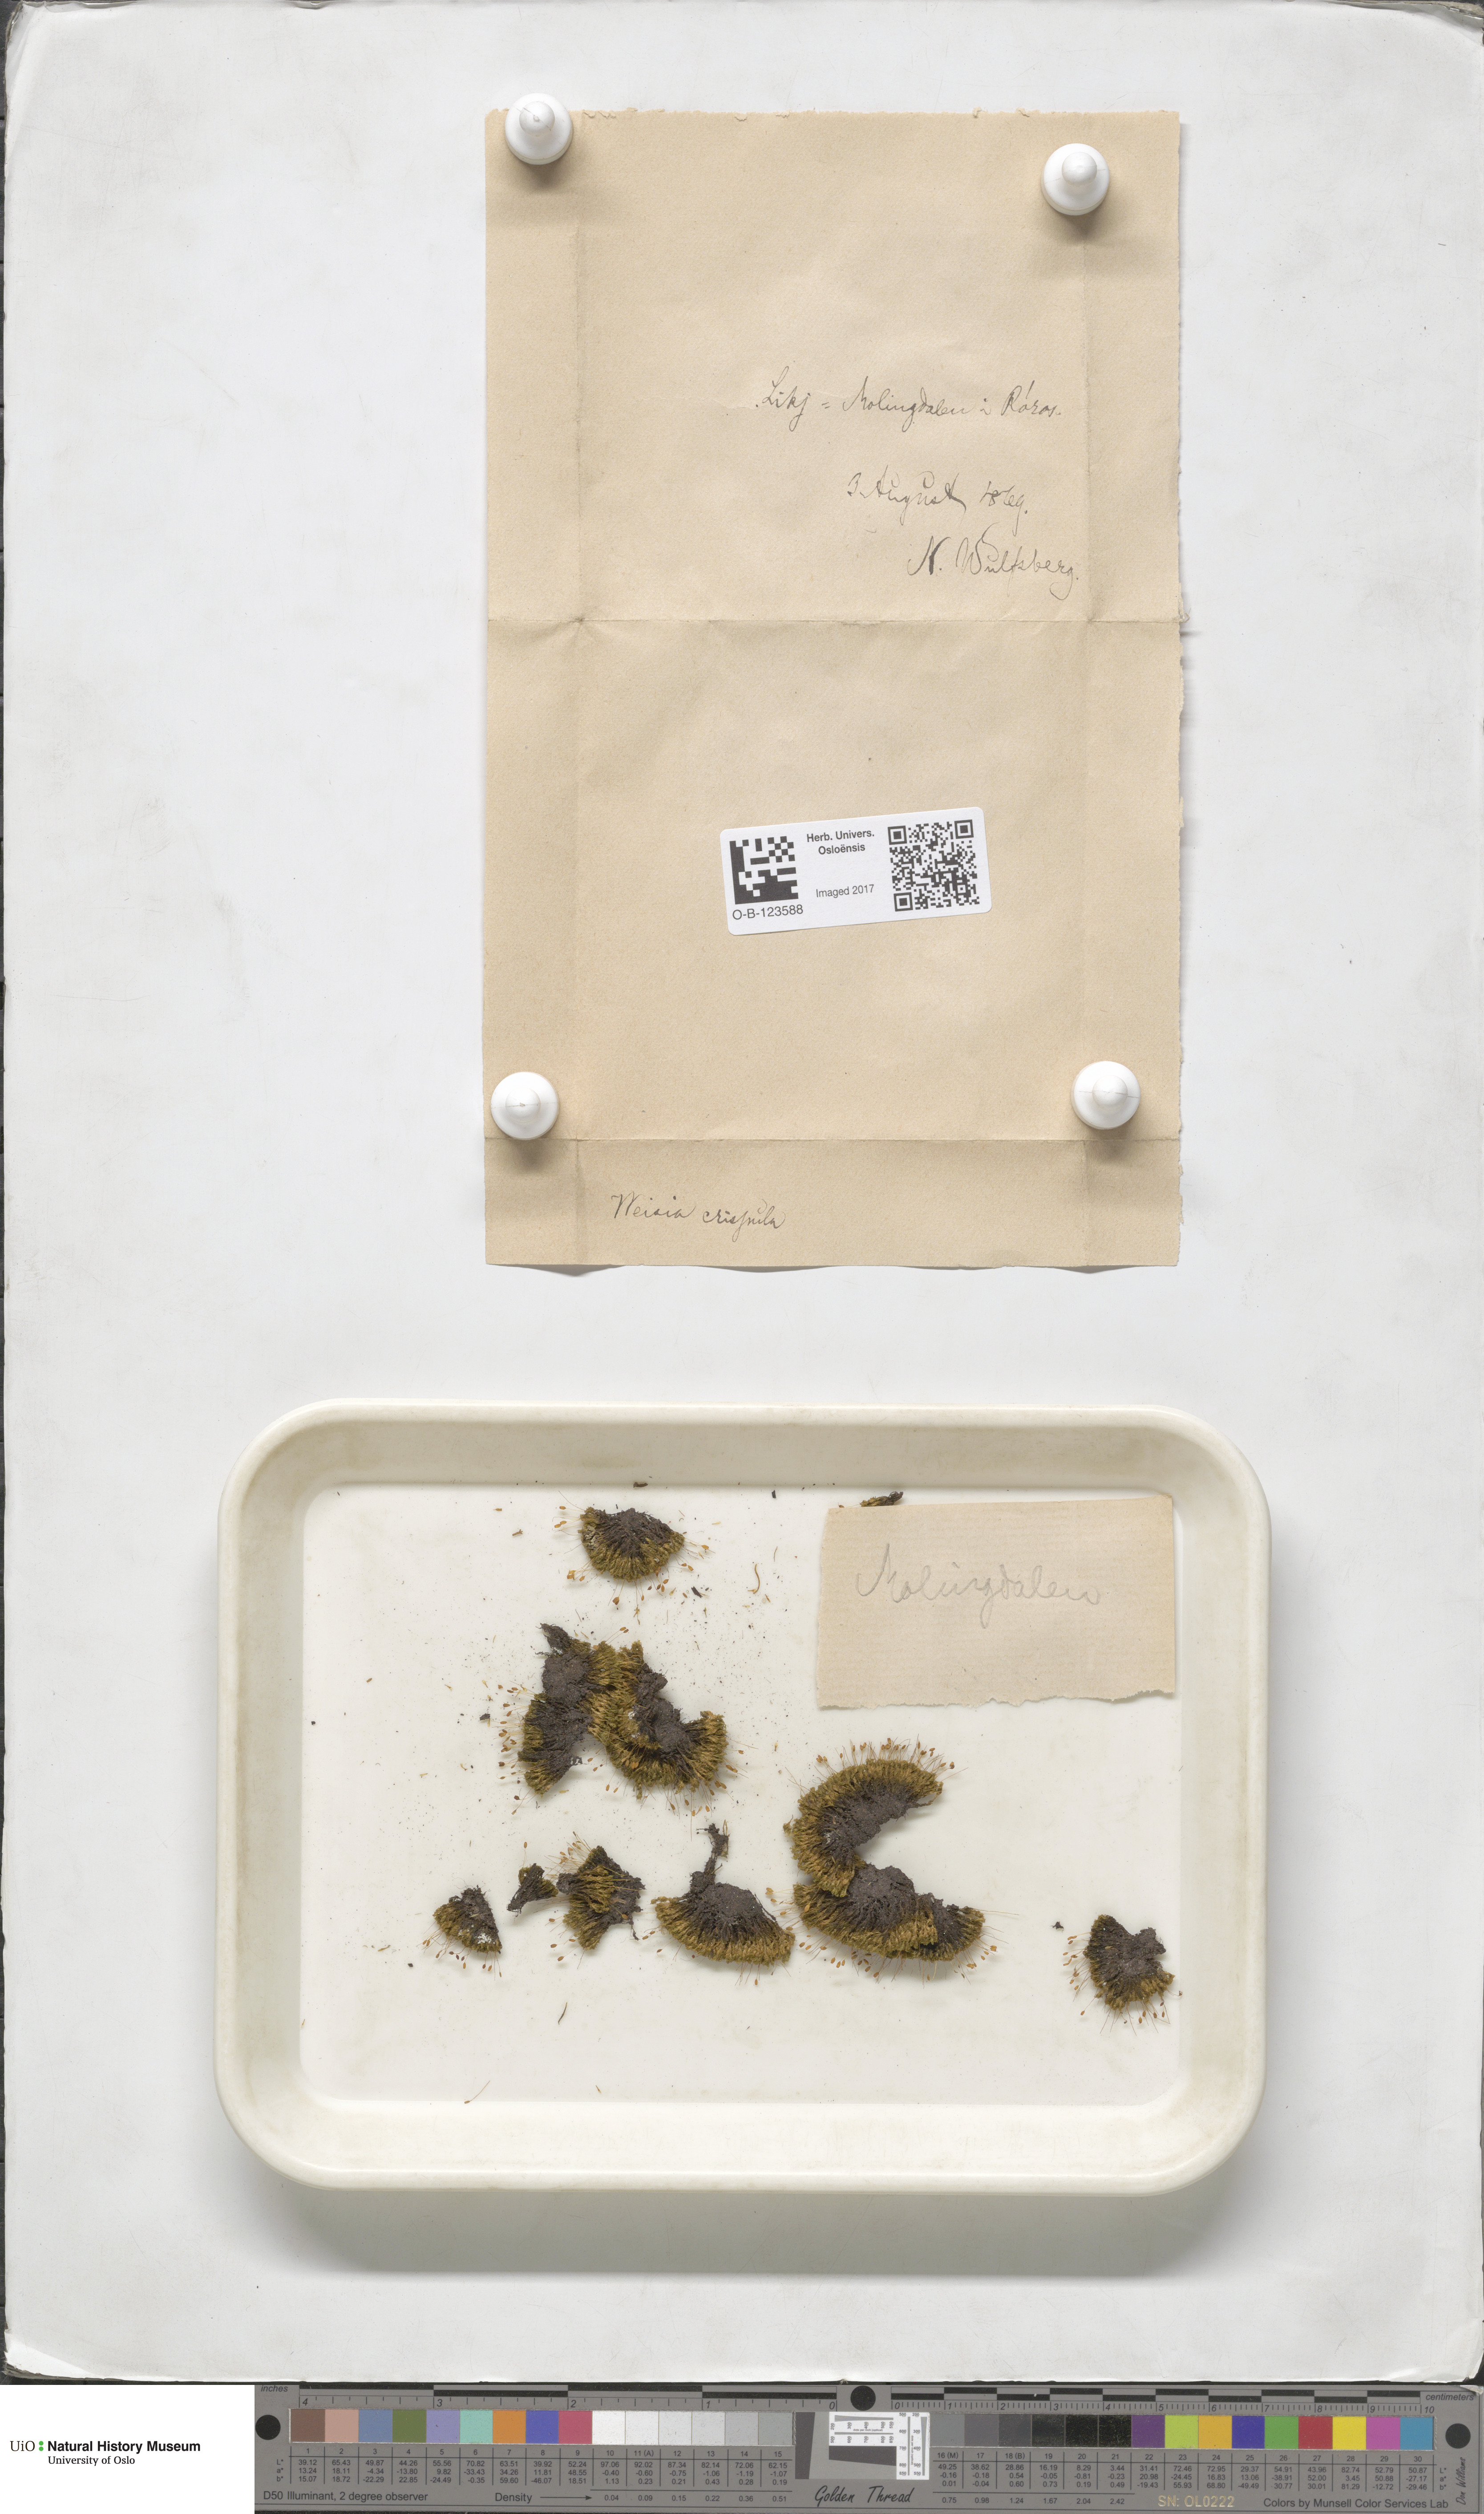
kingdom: Plantae
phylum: Bryophyta
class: Bryopsida
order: Scouleriales
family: Hymenolomataceae
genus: Hymenoloma
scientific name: Hymenoloma crispulum
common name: Mountain pincushion
